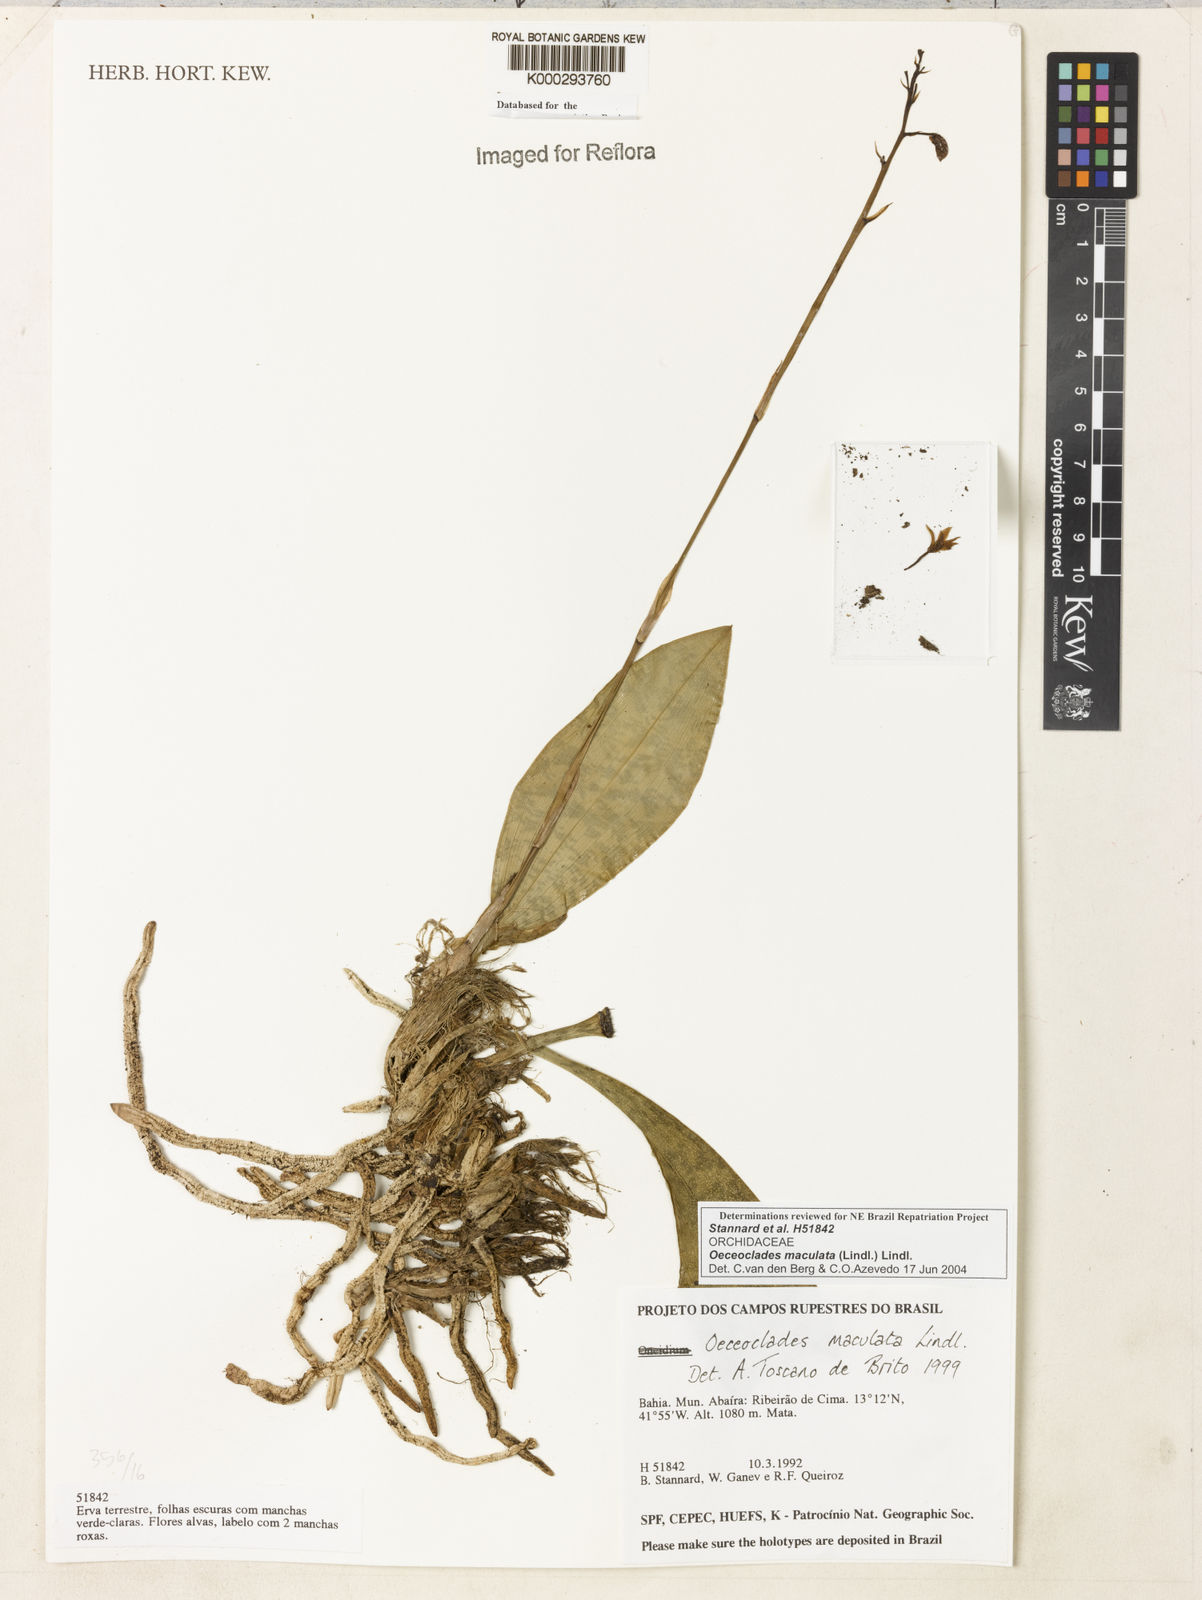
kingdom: Plantae
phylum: Tracheophyta
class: Liliopsida
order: Asparagales
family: Orchidaceae
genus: Eulophia
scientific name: Eulophia maculata
